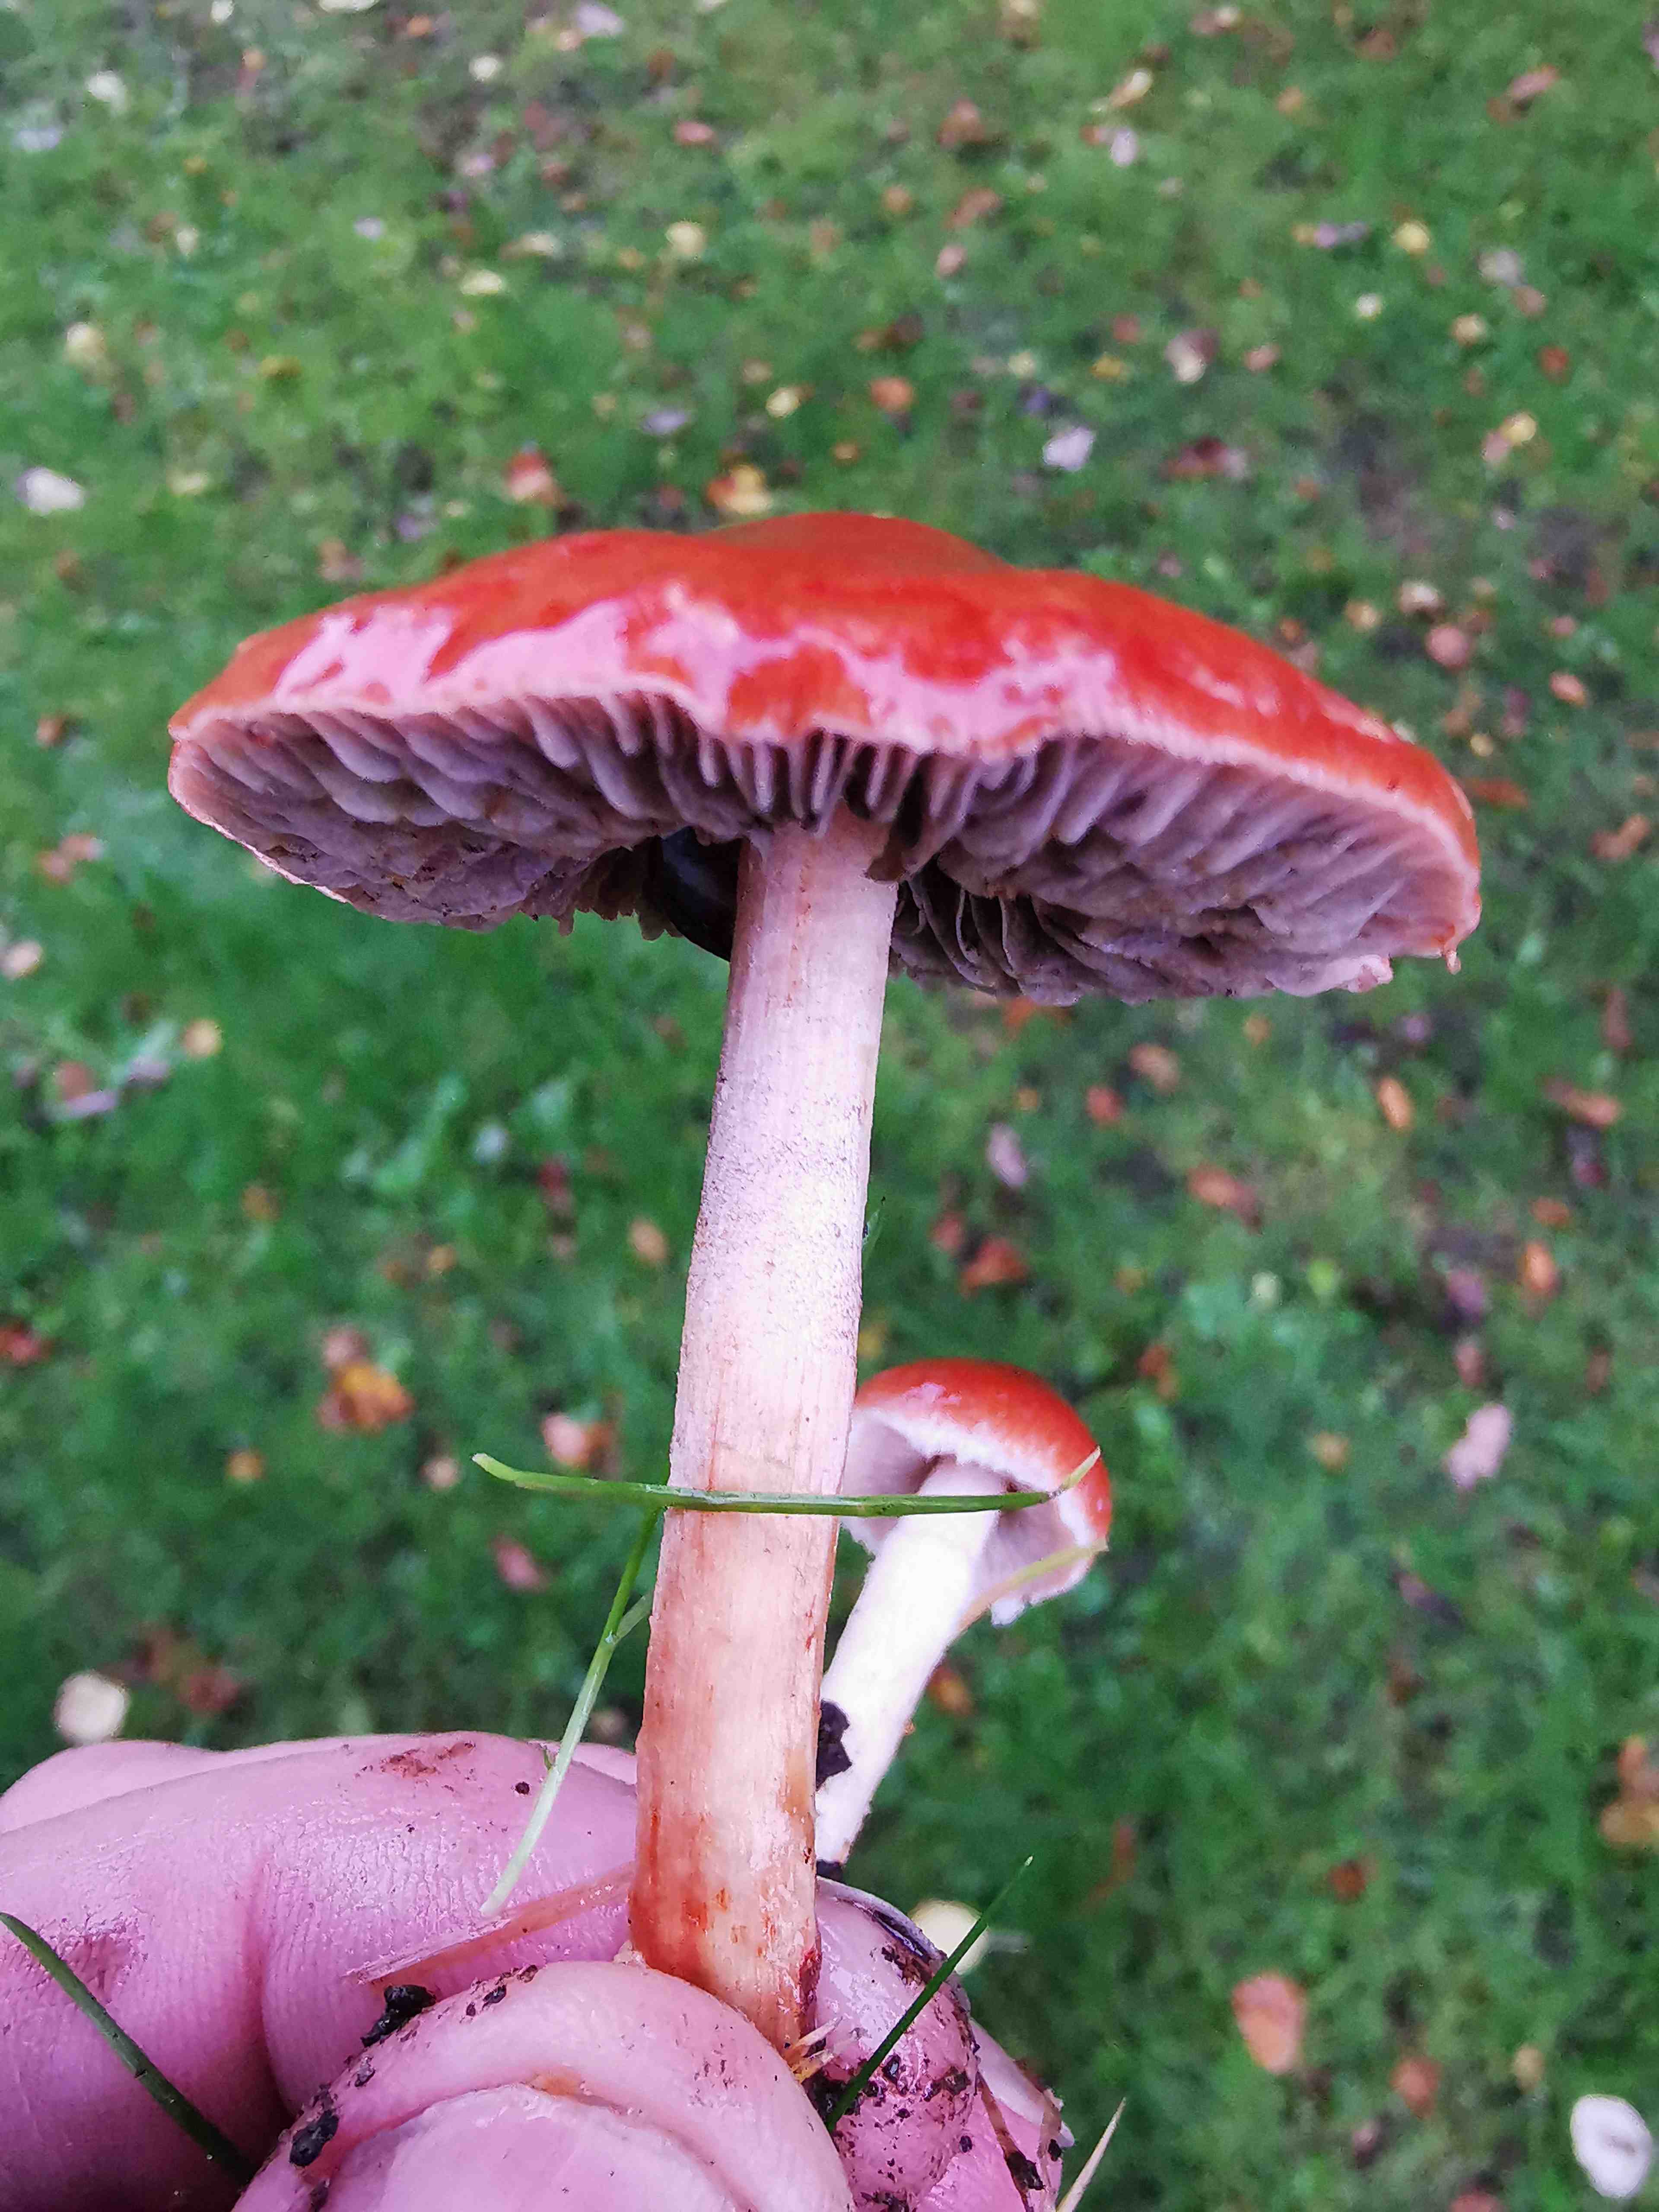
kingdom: Fungi
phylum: Basidiomycota
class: Agaricomycetes
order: Agaricales
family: Strophariaceae
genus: Leratiomyces
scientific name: Leratiomyces ceres
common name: orange bredblad
